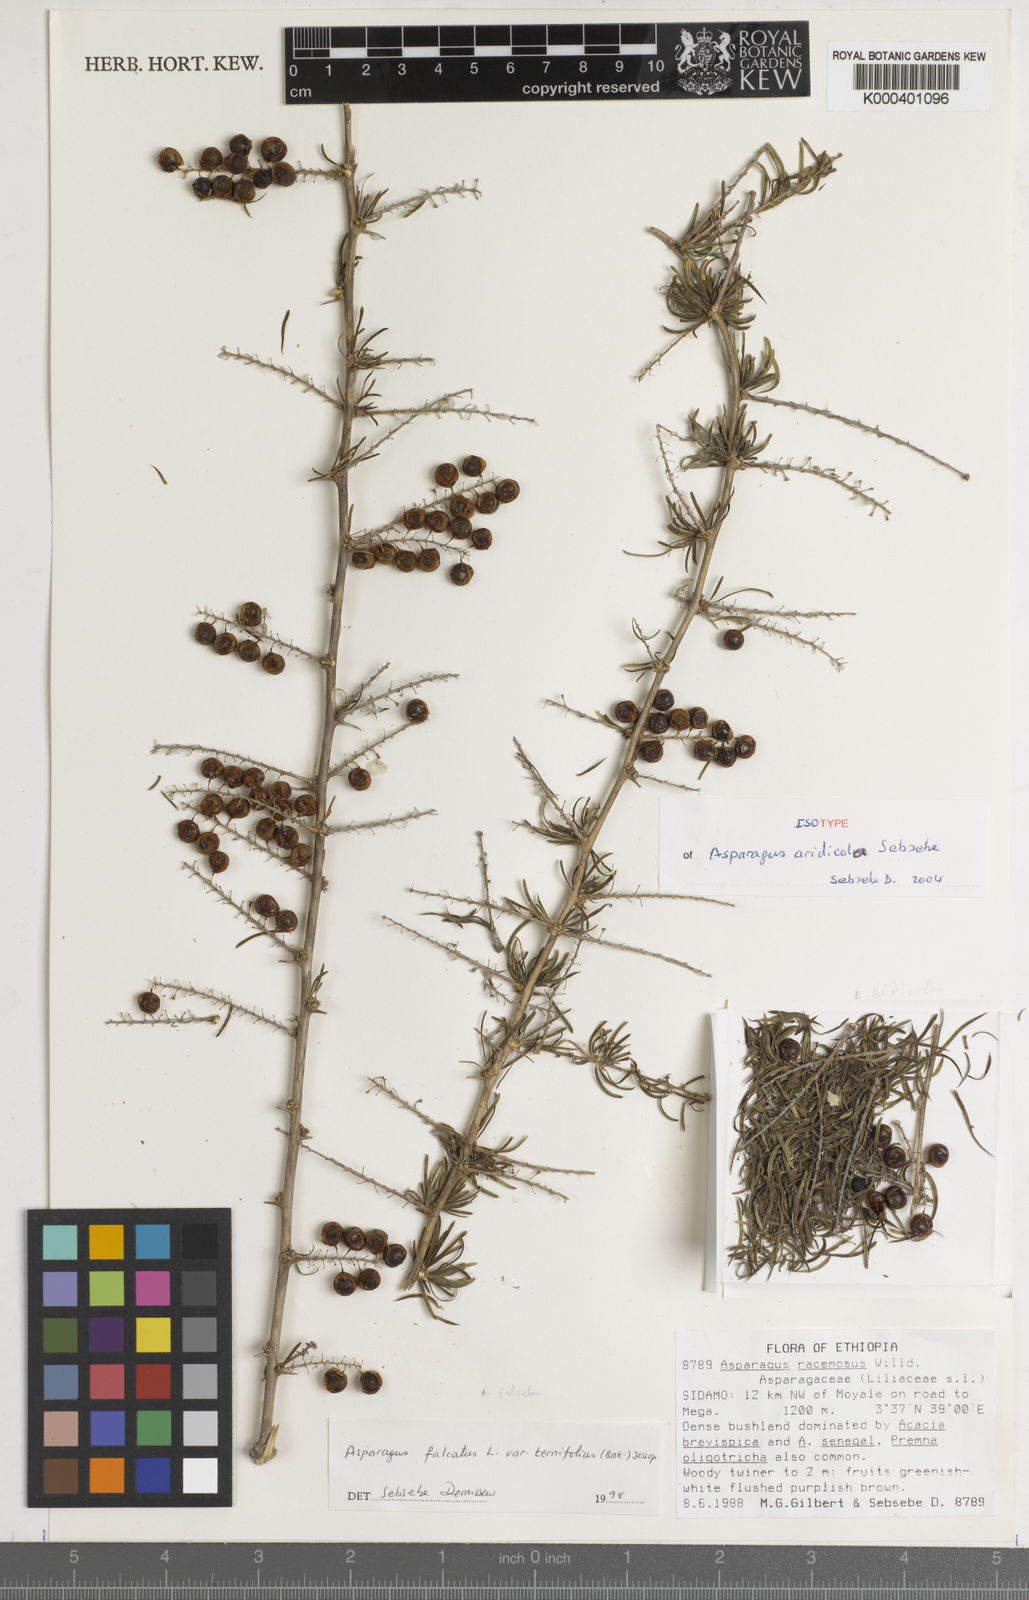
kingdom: Plantae
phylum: Tracheophyta
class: Liliopsida
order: Asparagales
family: Asparagaceae
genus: Asparagus
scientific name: Asparagus aridicola
